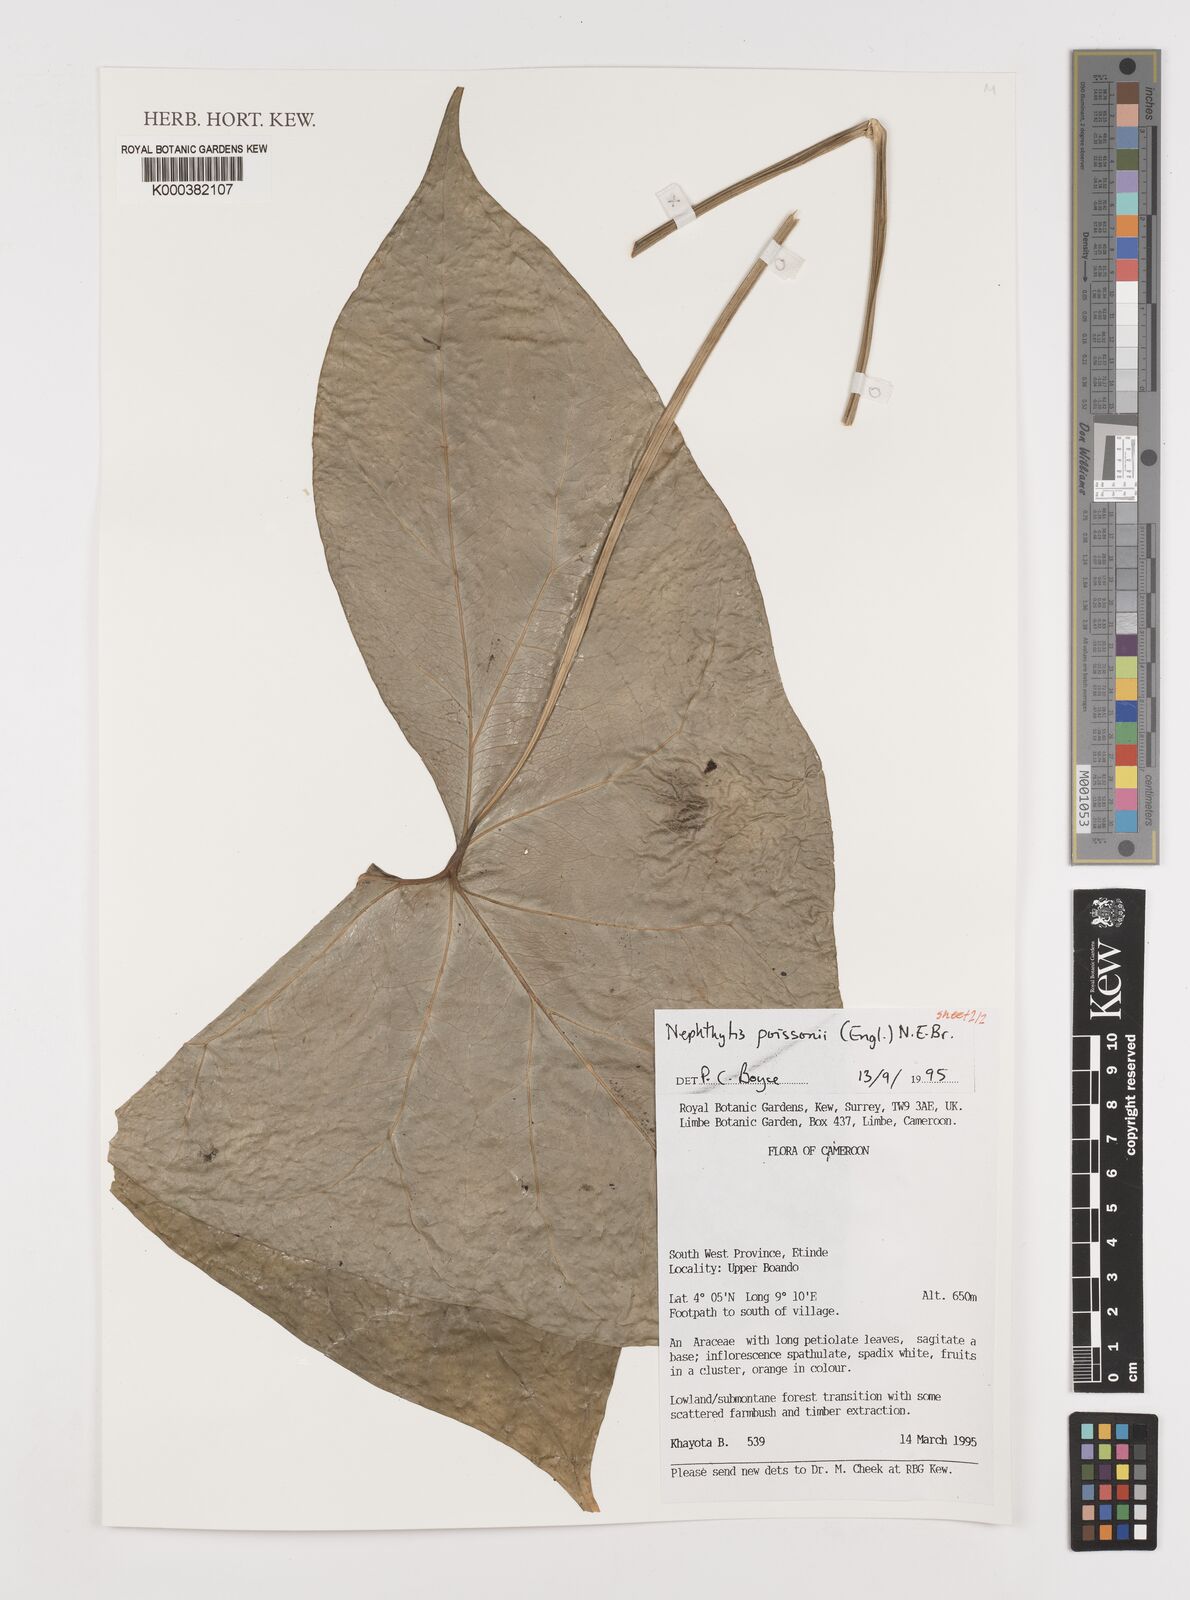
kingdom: Plantae
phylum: Tracheophyta
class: Liliopsida
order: Alismatales
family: Araceae
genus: Nephthytis
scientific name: Nephthytis poissonii
